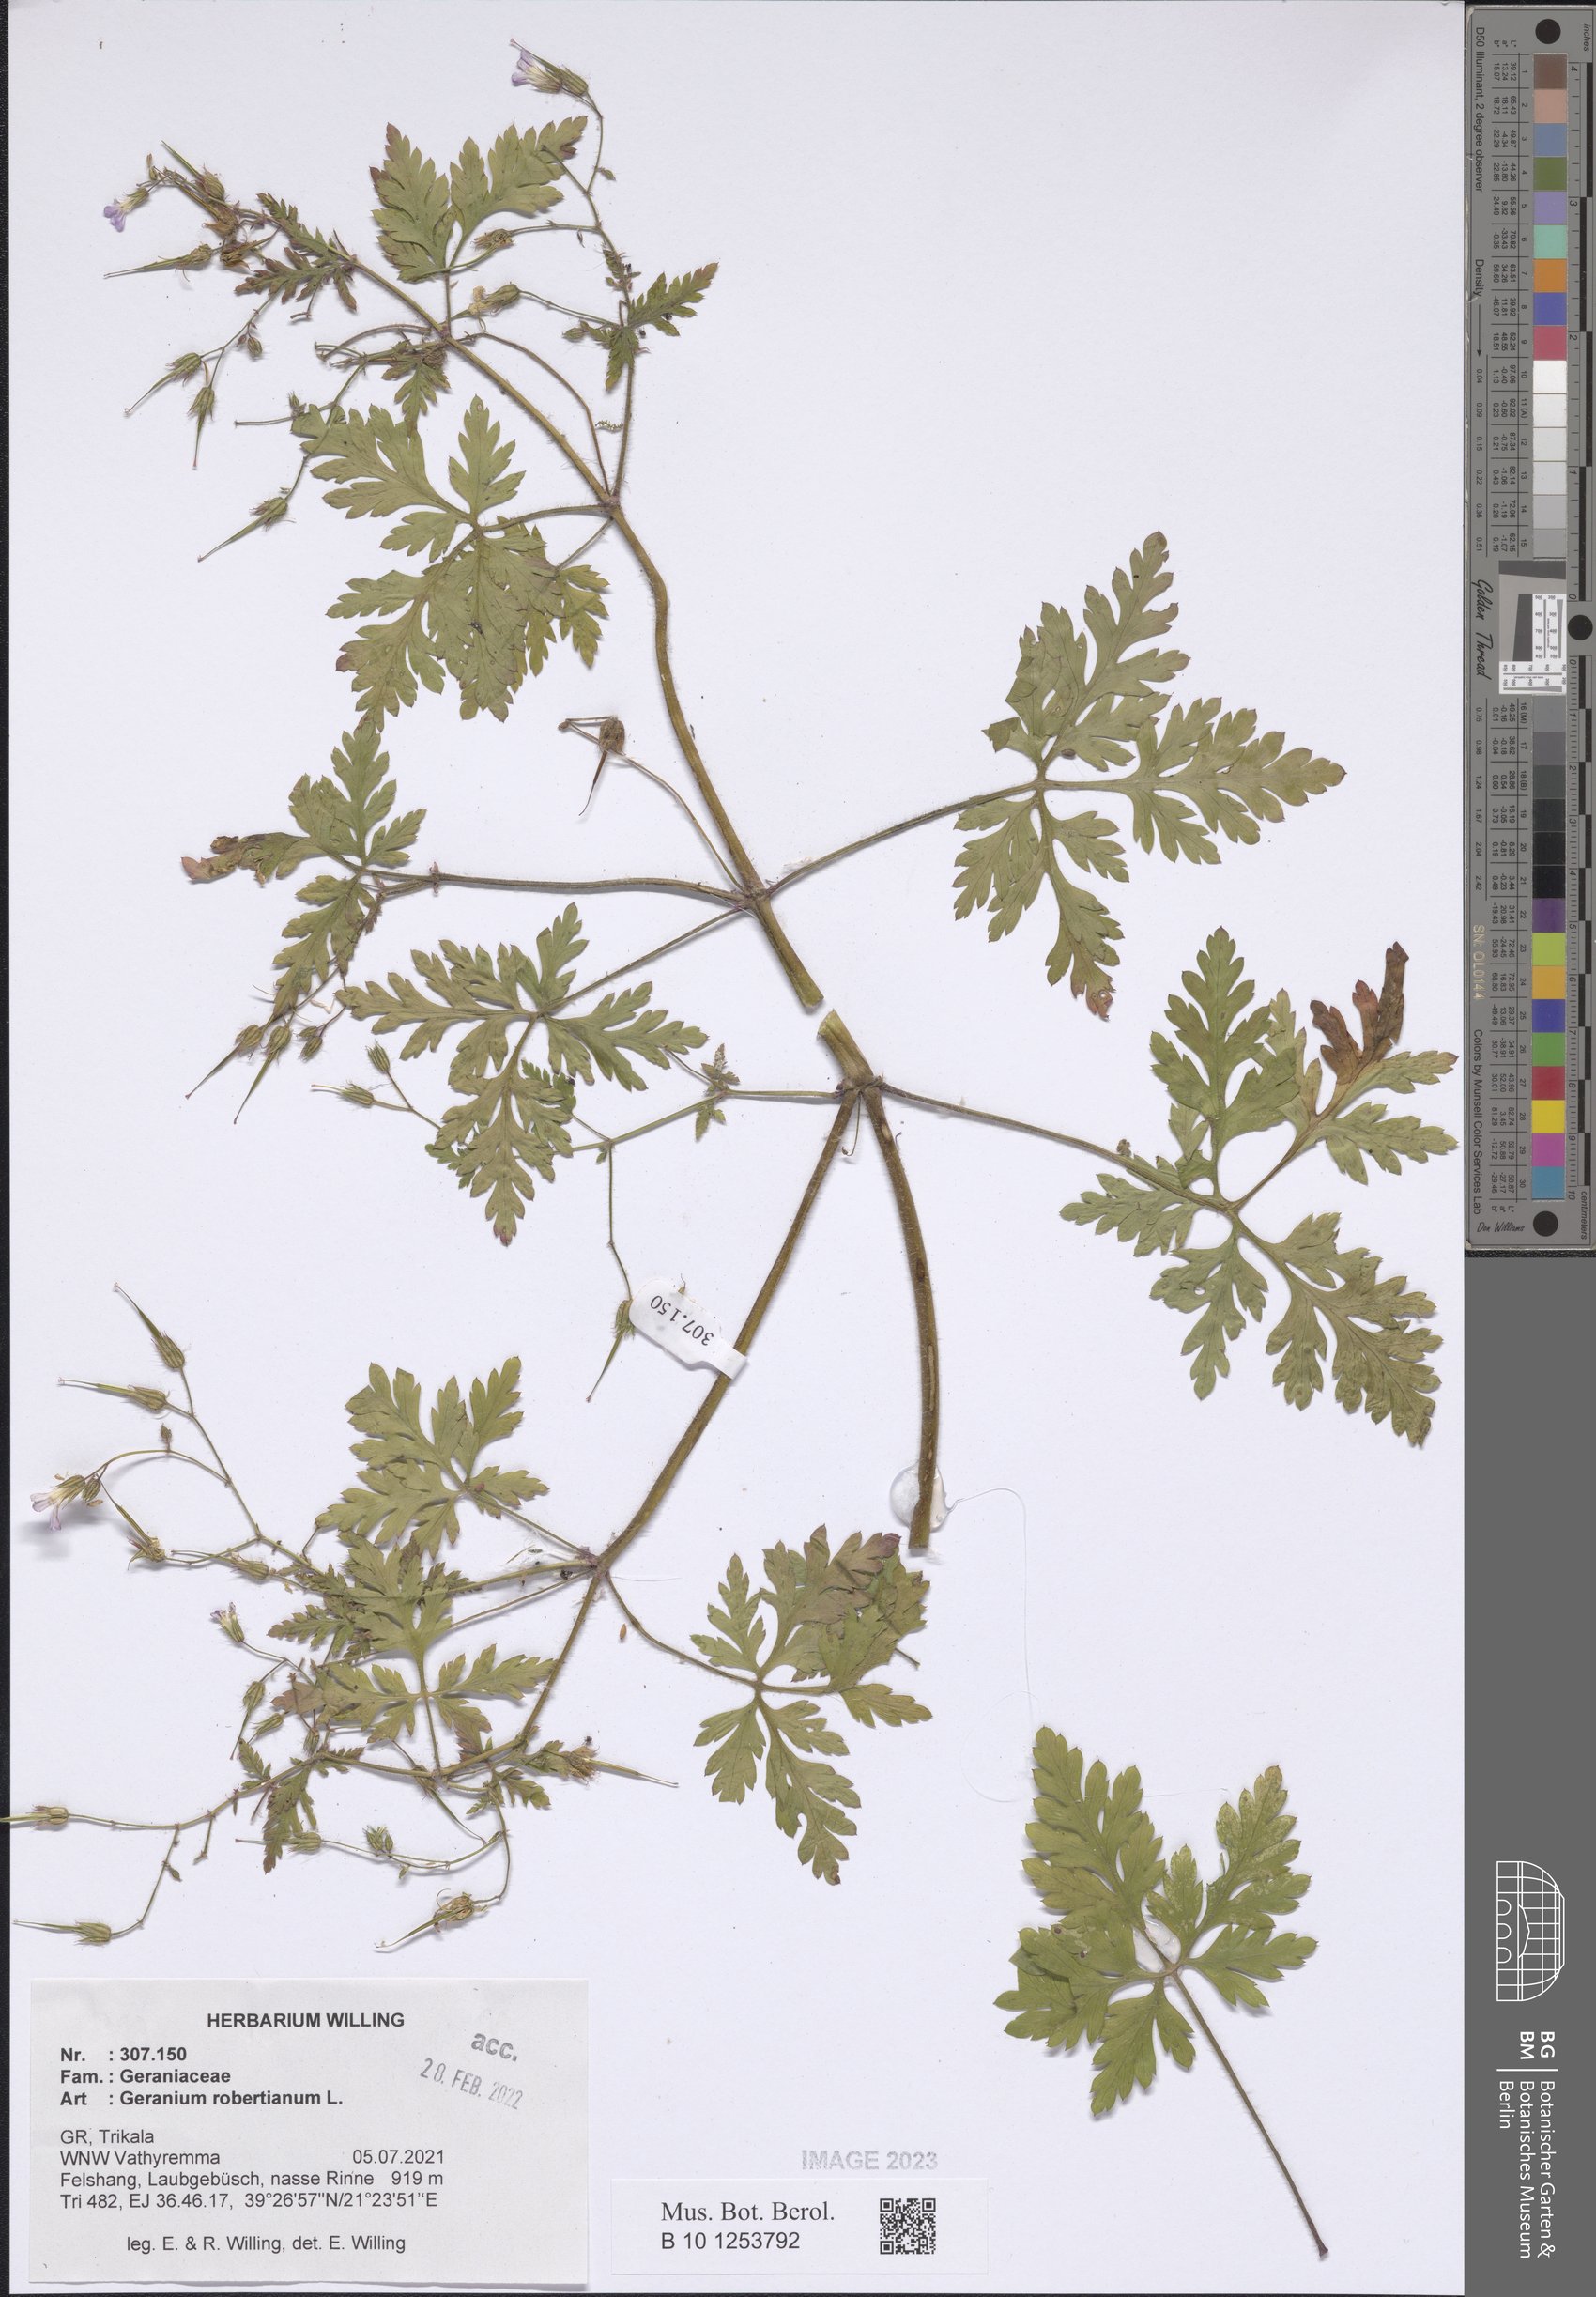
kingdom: Plantae
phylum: Tracheophyta
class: Magnoliopsida
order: Geraniales
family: Geraniaceae
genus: Geranium
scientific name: Geranium robertianum
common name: Herb-robert
